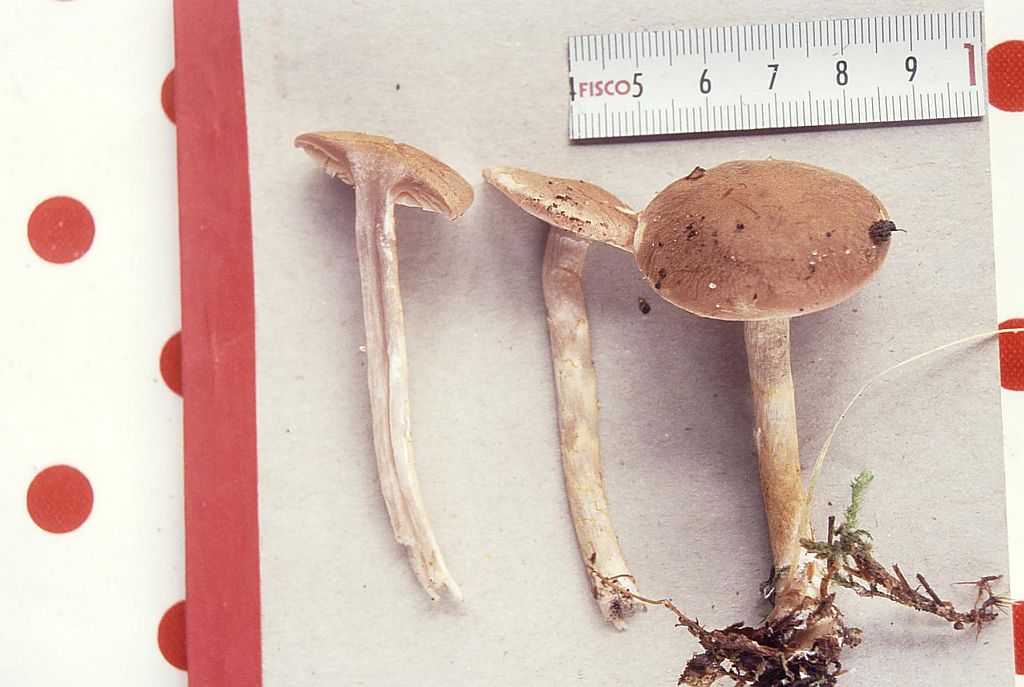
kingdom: Fungi
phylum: Basidiomycota
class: Agaricomycetes
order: Agaricales
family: Cortinariaceae
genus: Cortinarius
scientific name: Cortinarius anomalus
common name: Variable webcap
